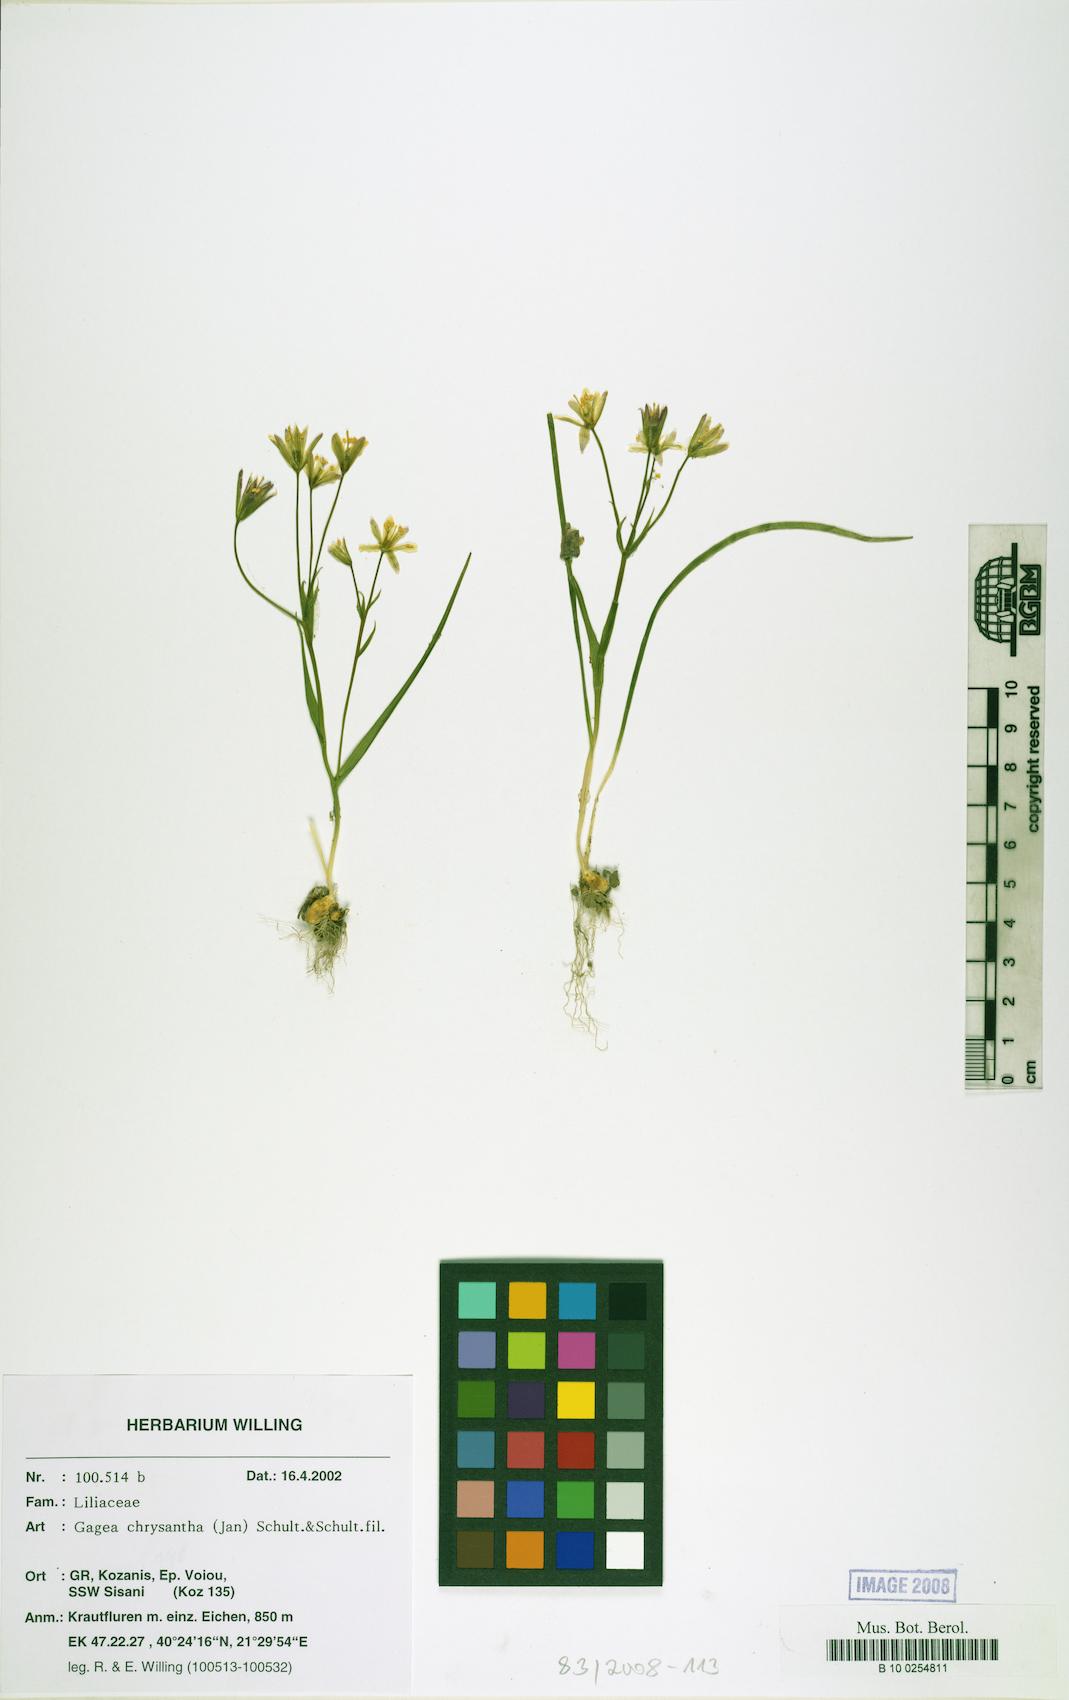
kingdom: Plantae
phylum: Tracheophyta
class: Liliopsida
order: Liliales
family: Liliaceae
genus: Gagea
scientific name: Gagea chrysantha
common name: Golden gagea
